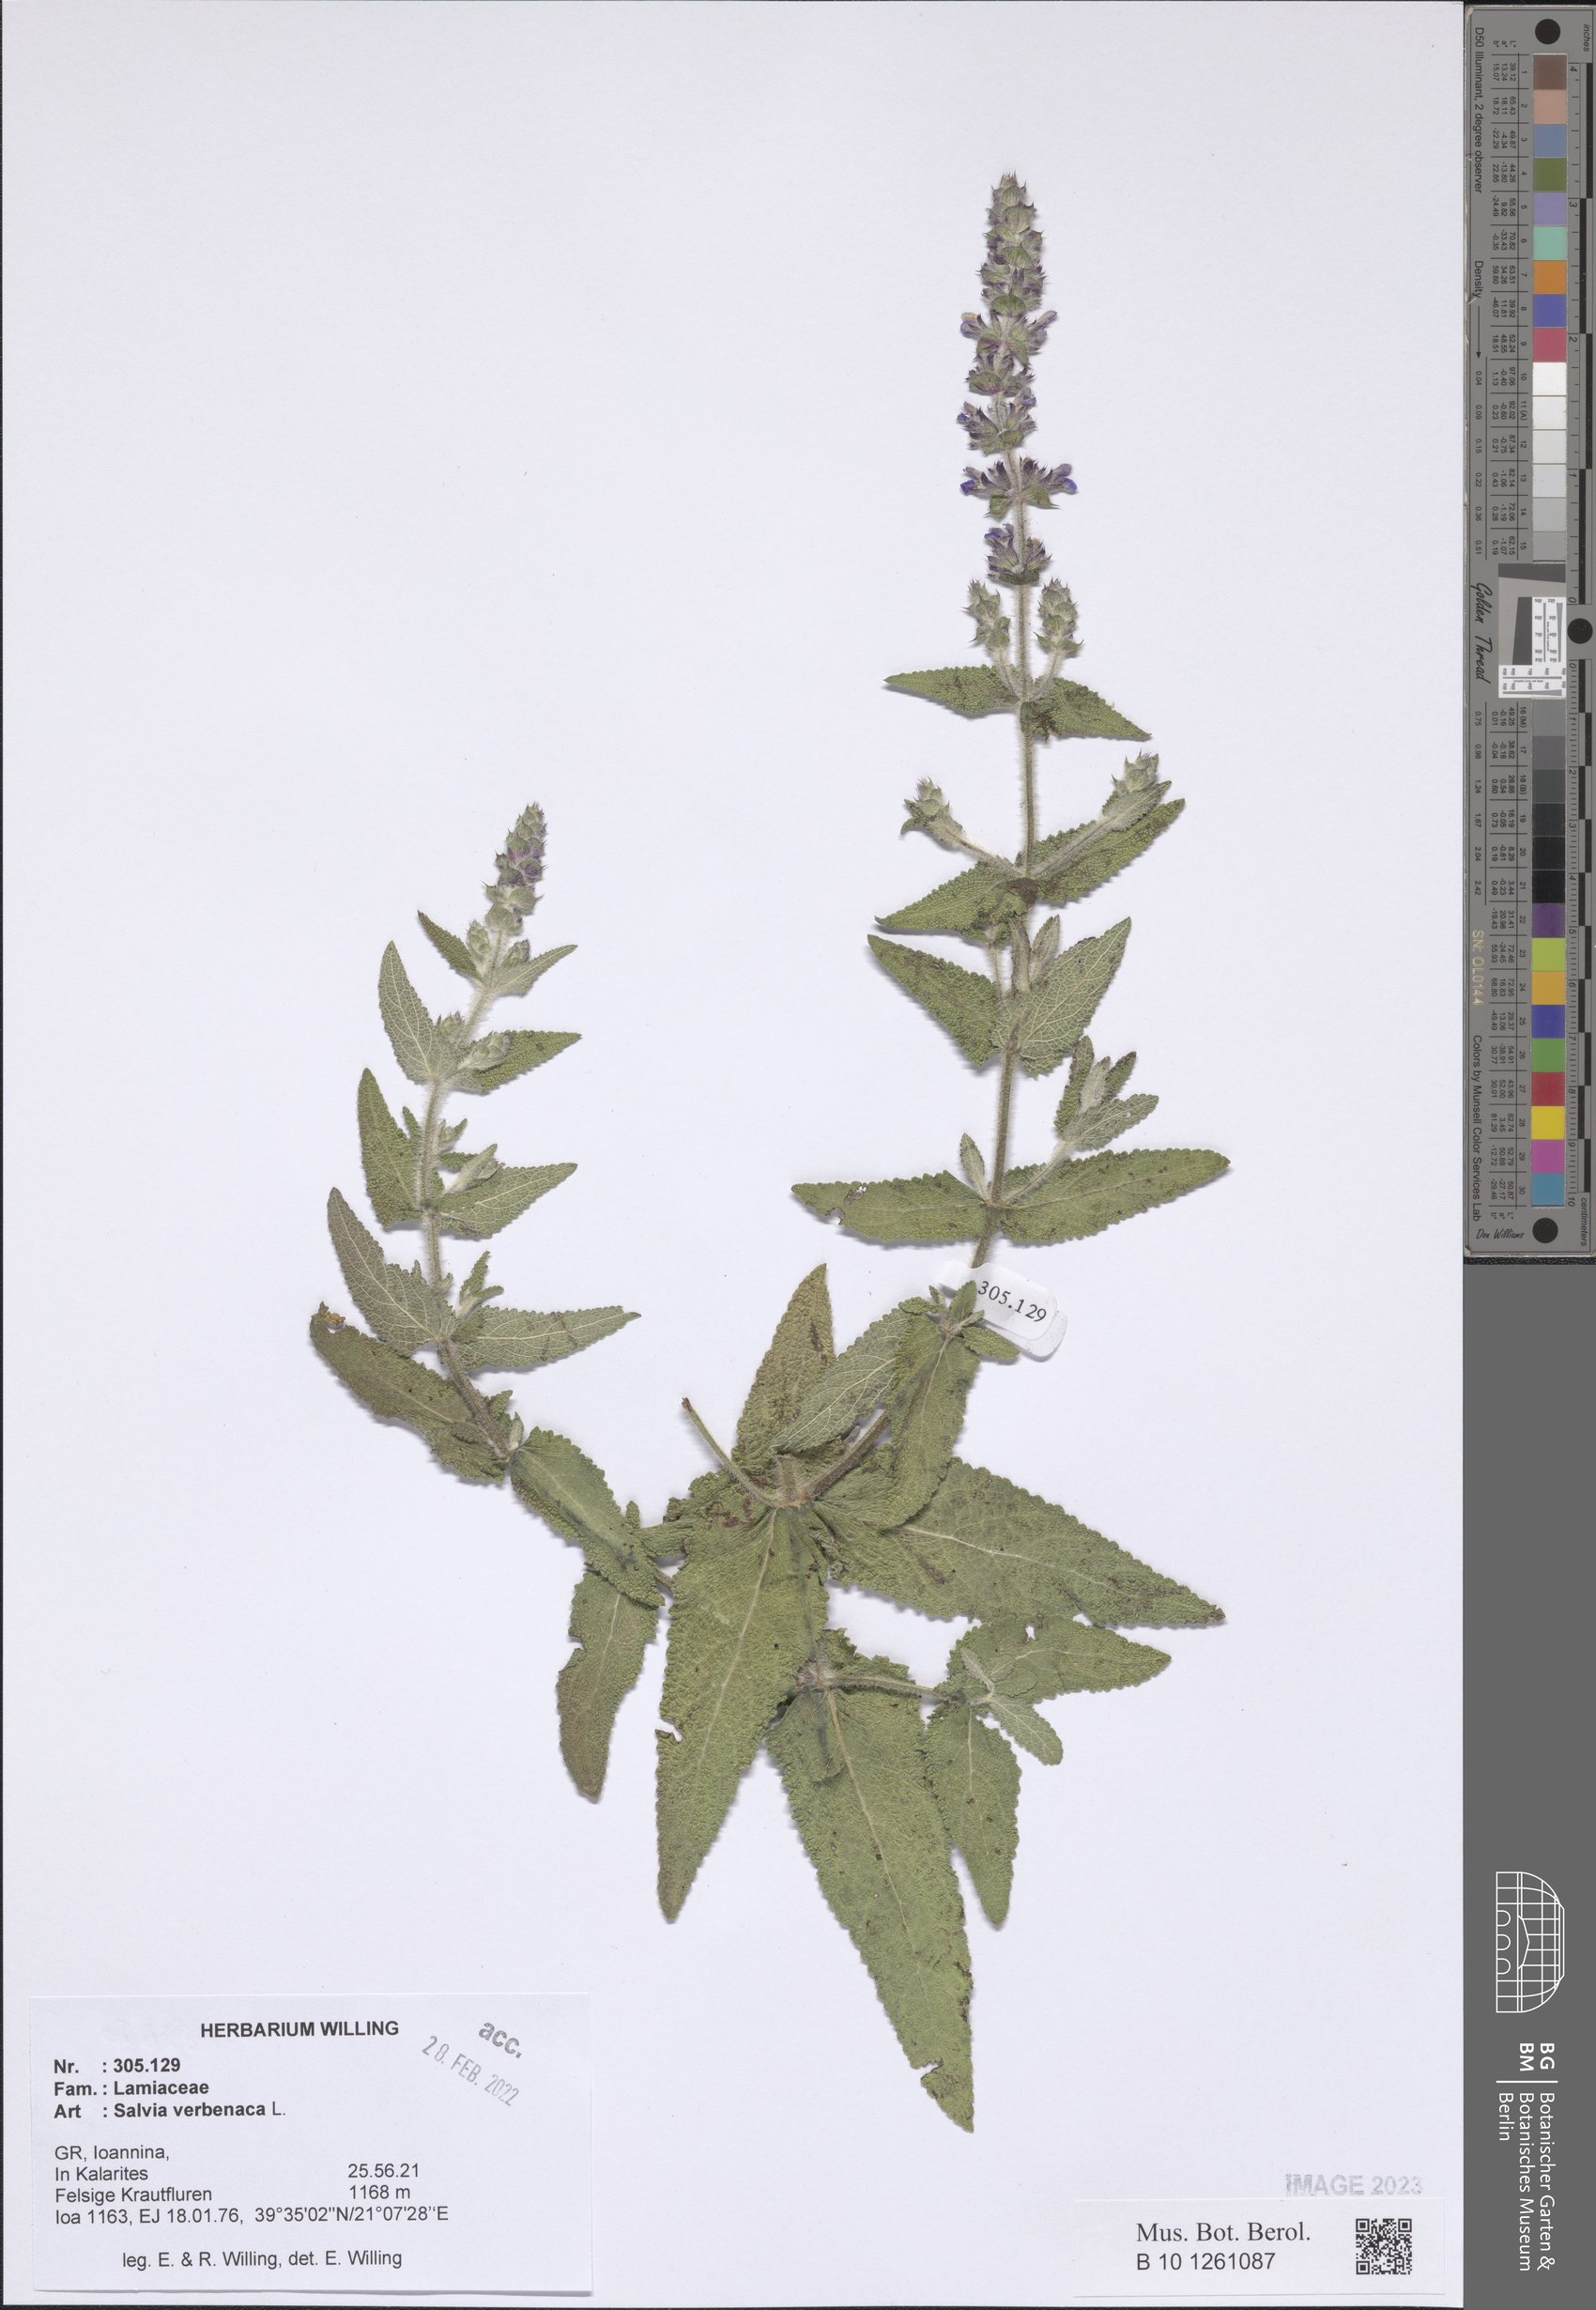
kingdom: Plantae
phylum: Tracheophyta
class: Magnoliopsida
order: Lamiales
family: Lamiaceae
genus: Salvia
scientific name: Salvia verbenaca
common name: Wild clary
